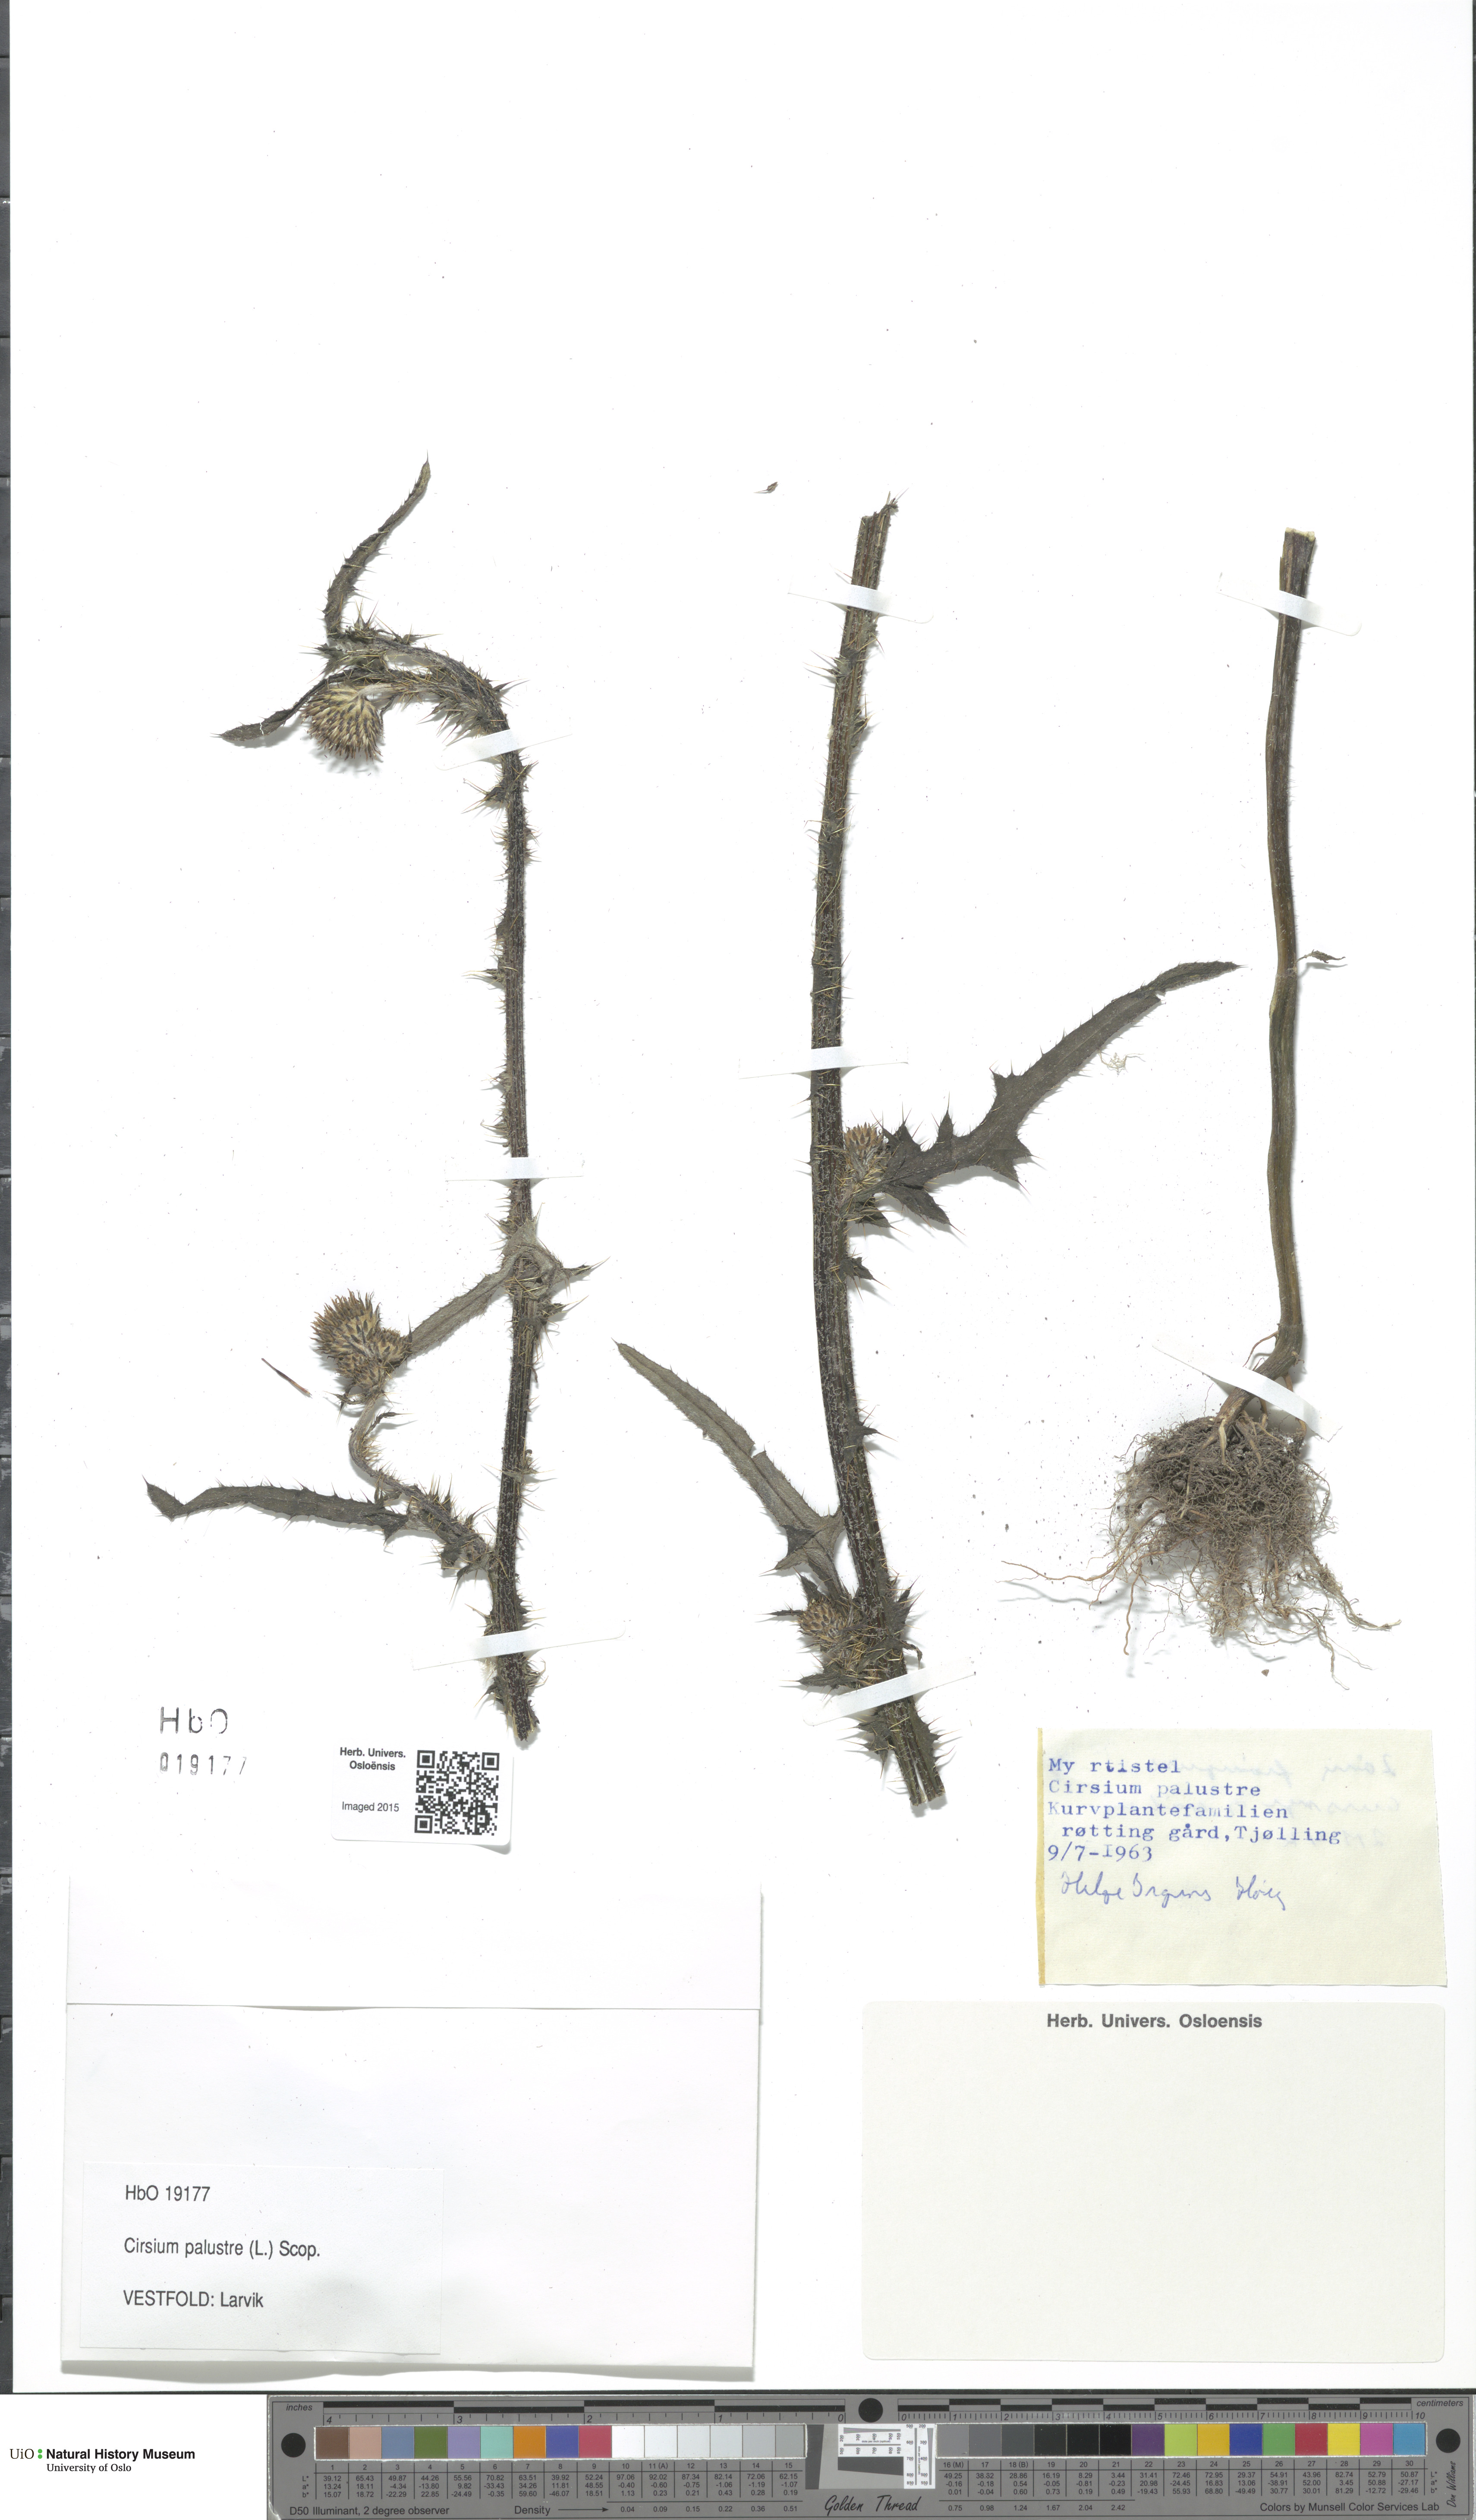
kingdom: Plantae
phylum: Tracheophyta
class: Magnoliopsida
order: Asterales
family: Asteraceae
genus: Cirsium
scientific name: Cirsium palustre
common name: Marsh thistle
